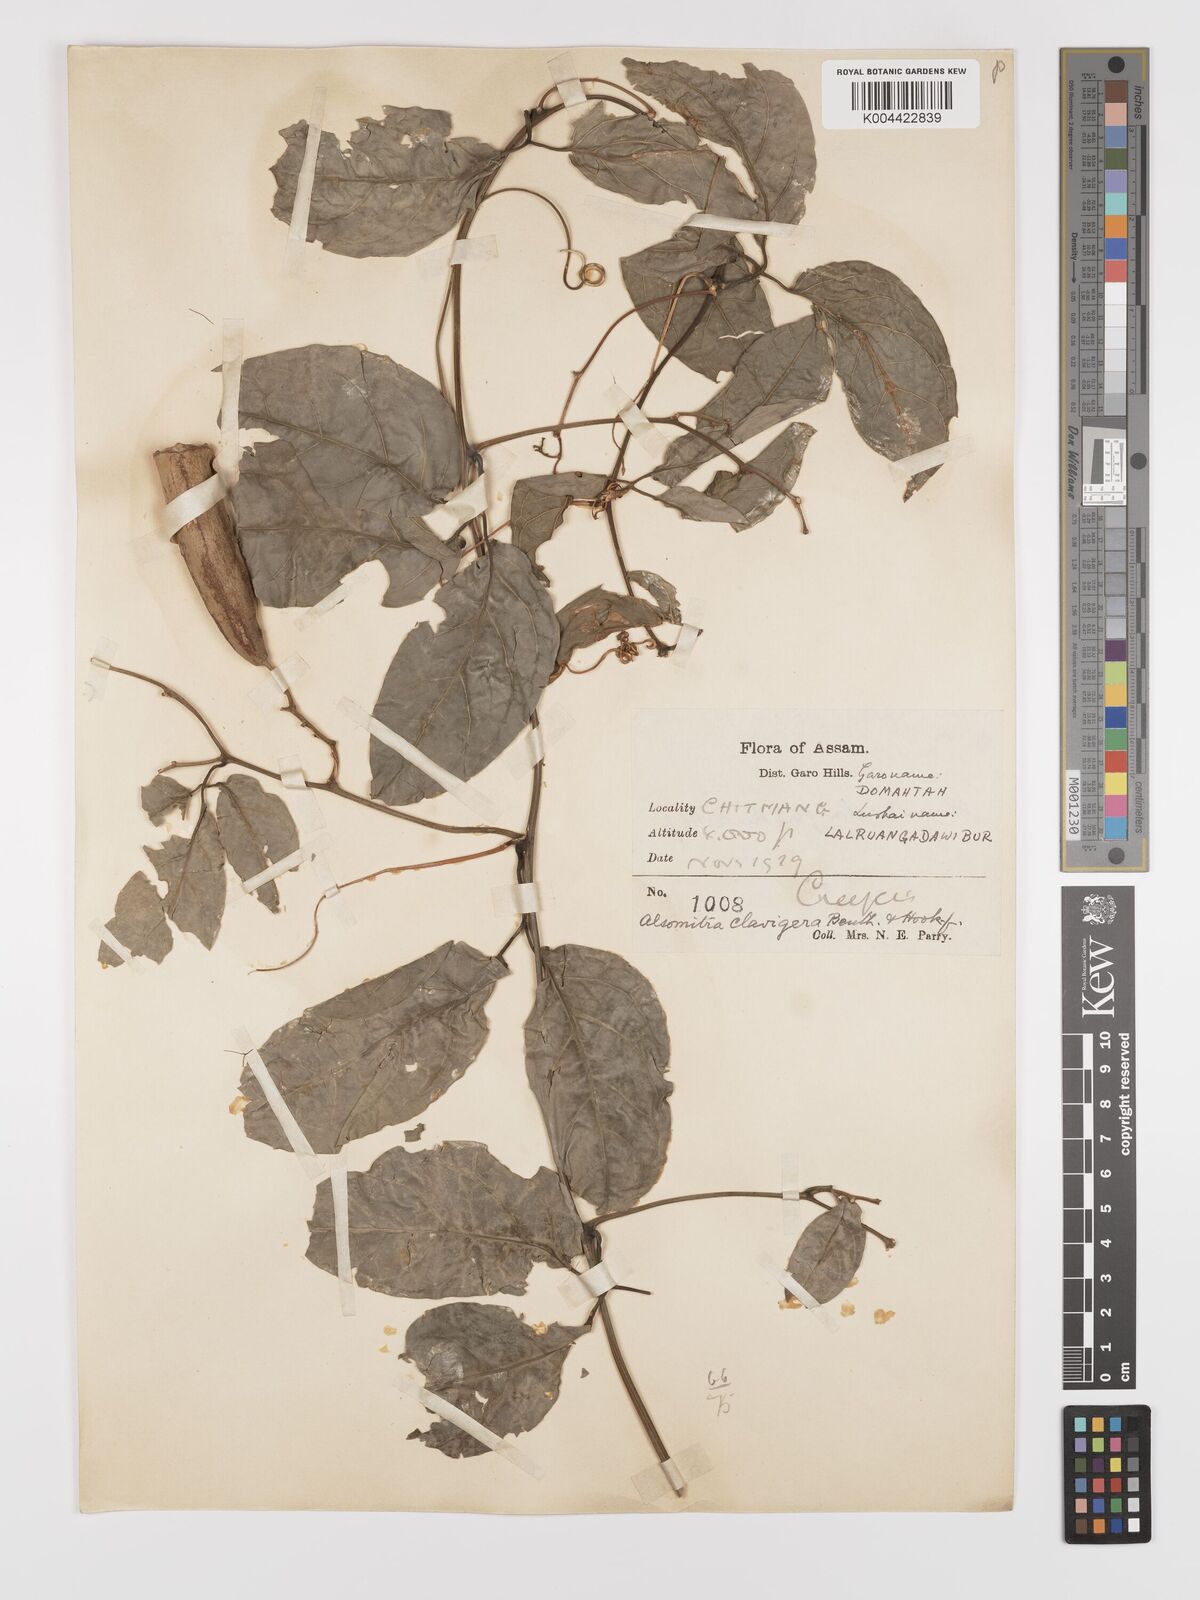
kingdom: Plantae
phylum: Tracheophyta
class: Magnoliopsida
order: Cucurbitales
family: Cucurbitaceae
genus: Neoalsomitra
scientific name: Neoalsomitra
